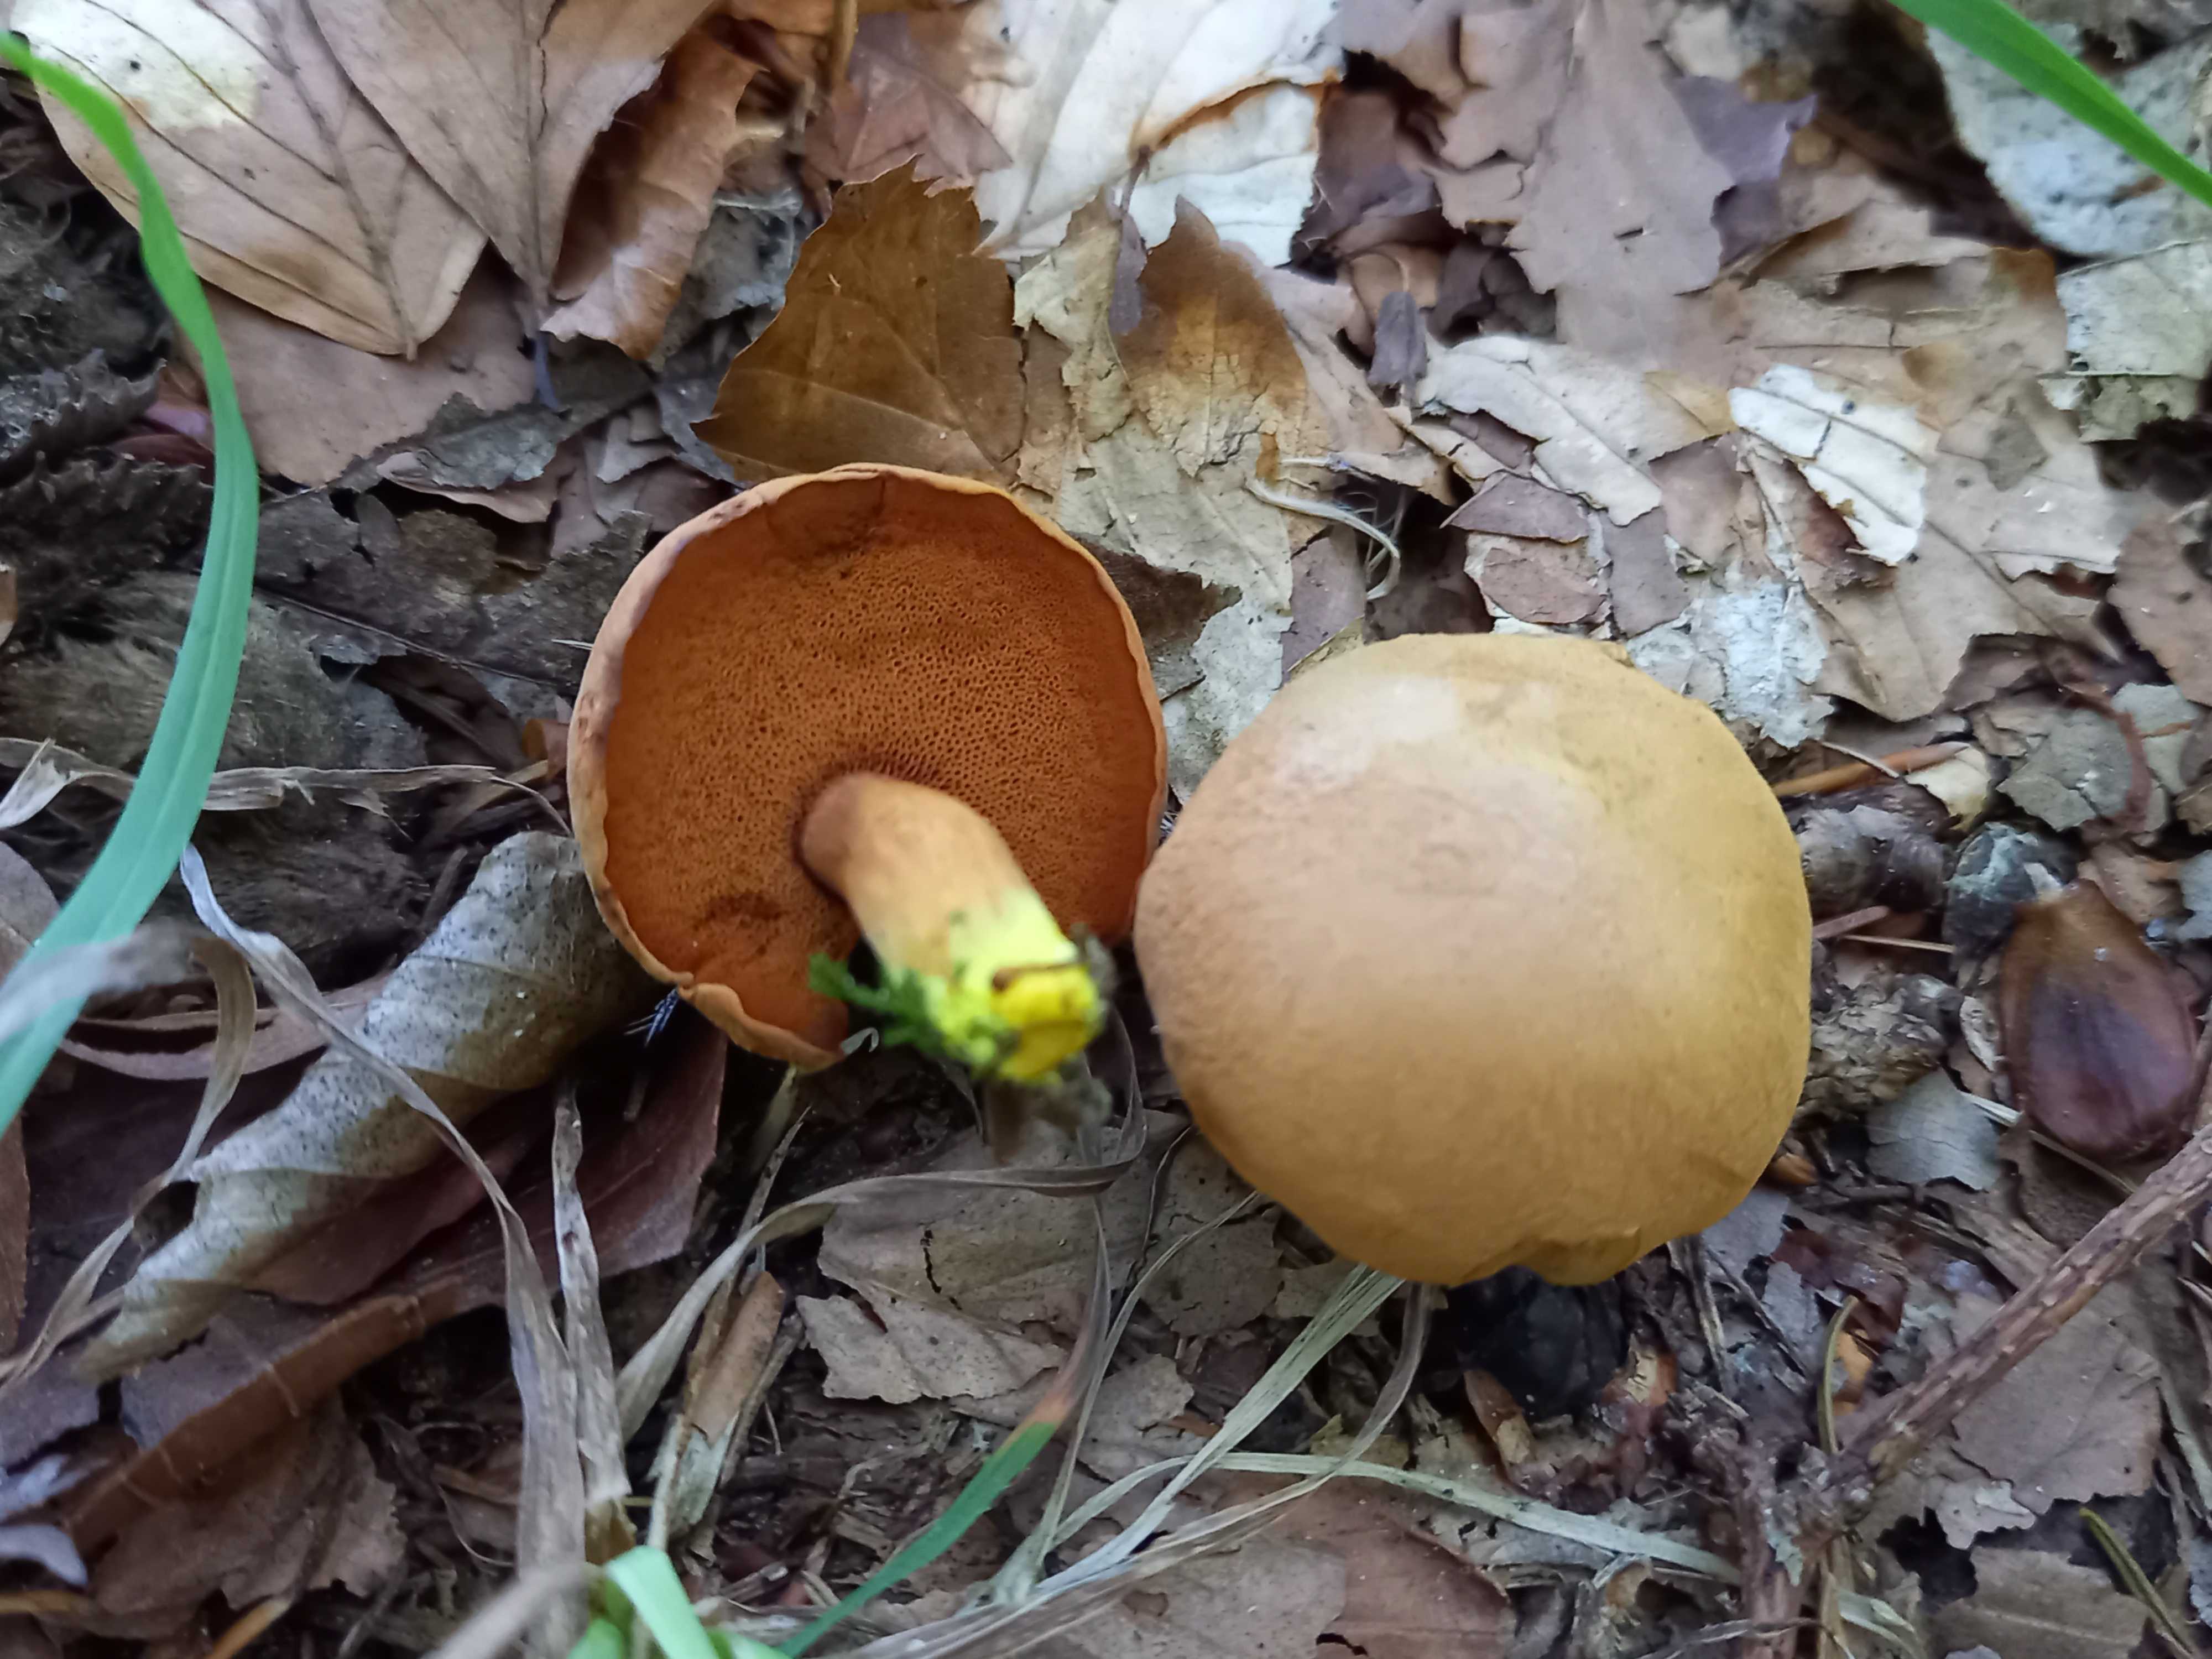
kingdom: Fungi
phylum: Basidiomycota
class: Agaricomycetes
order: Boletales
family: Boletaceae
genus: Chalciporus
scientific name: Chalciporus piperatus
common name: peberrørhat
